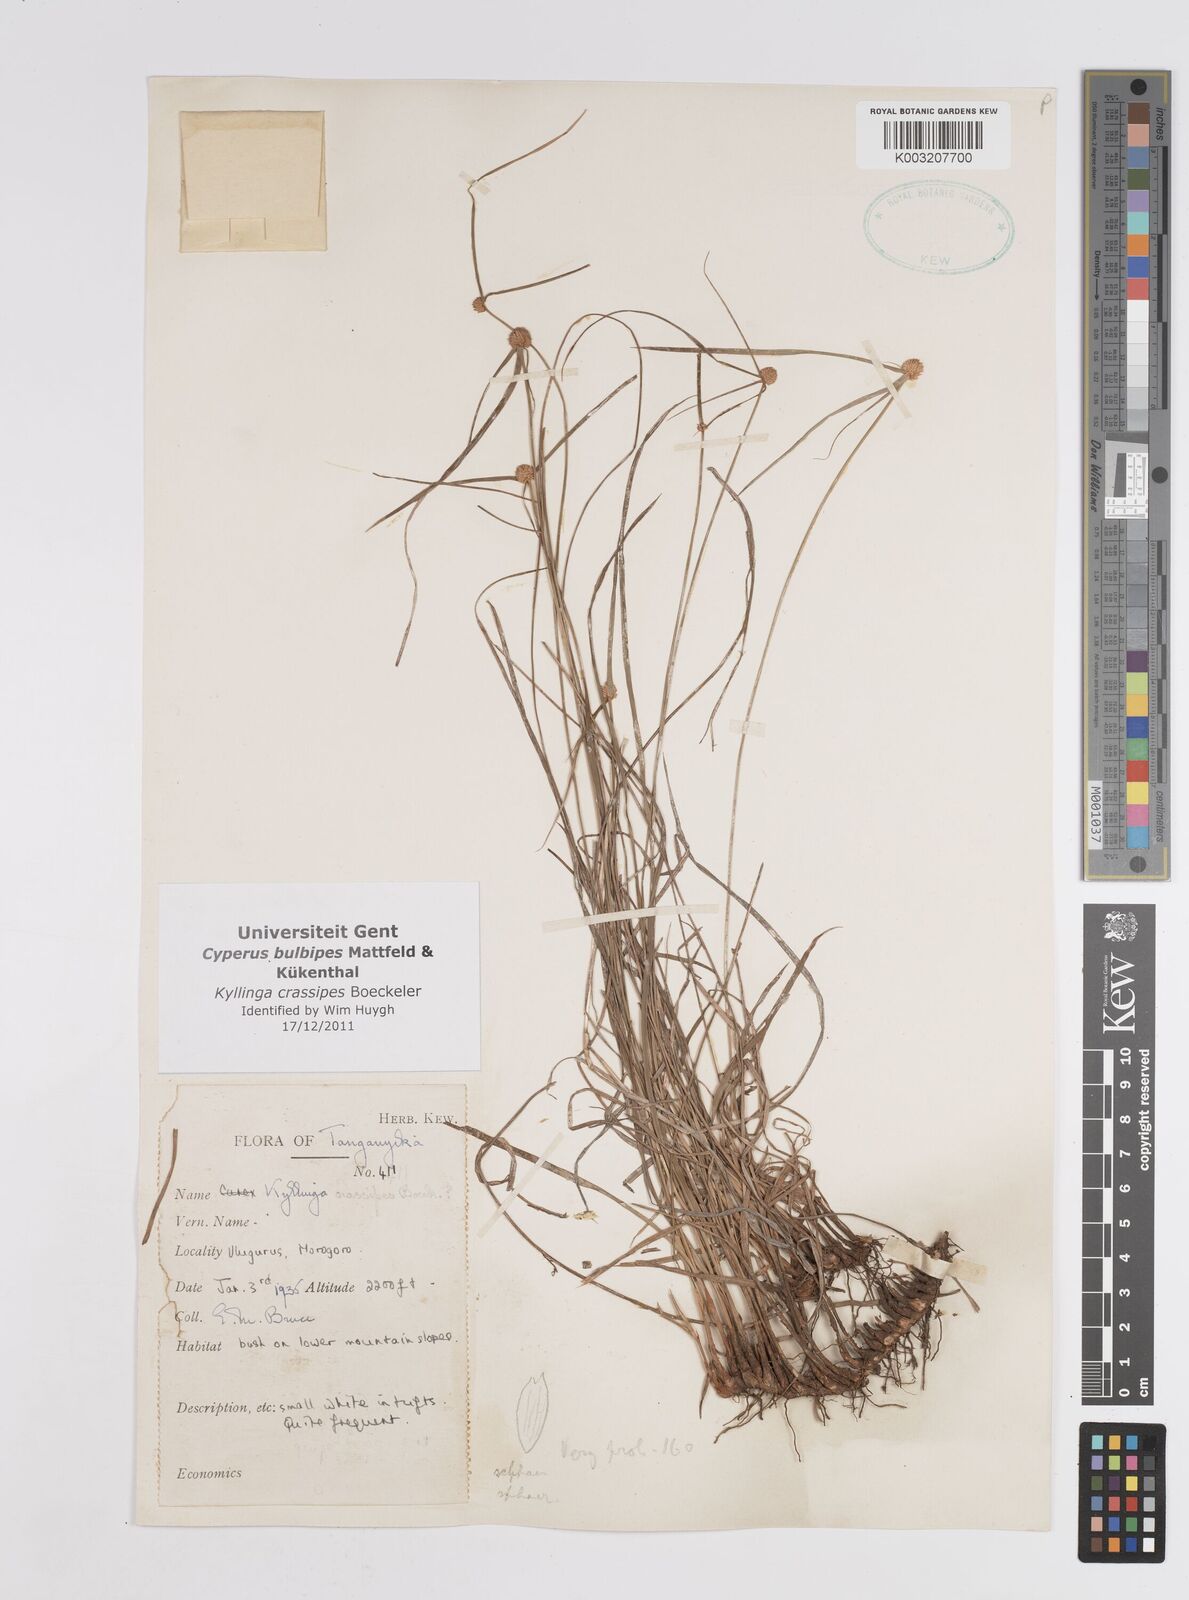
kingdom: Plantae
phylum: Tracheophyta
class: Liliopsida
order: Poales
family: Cyperaceae
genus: Cyperus
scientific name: Cyperus crassipes
